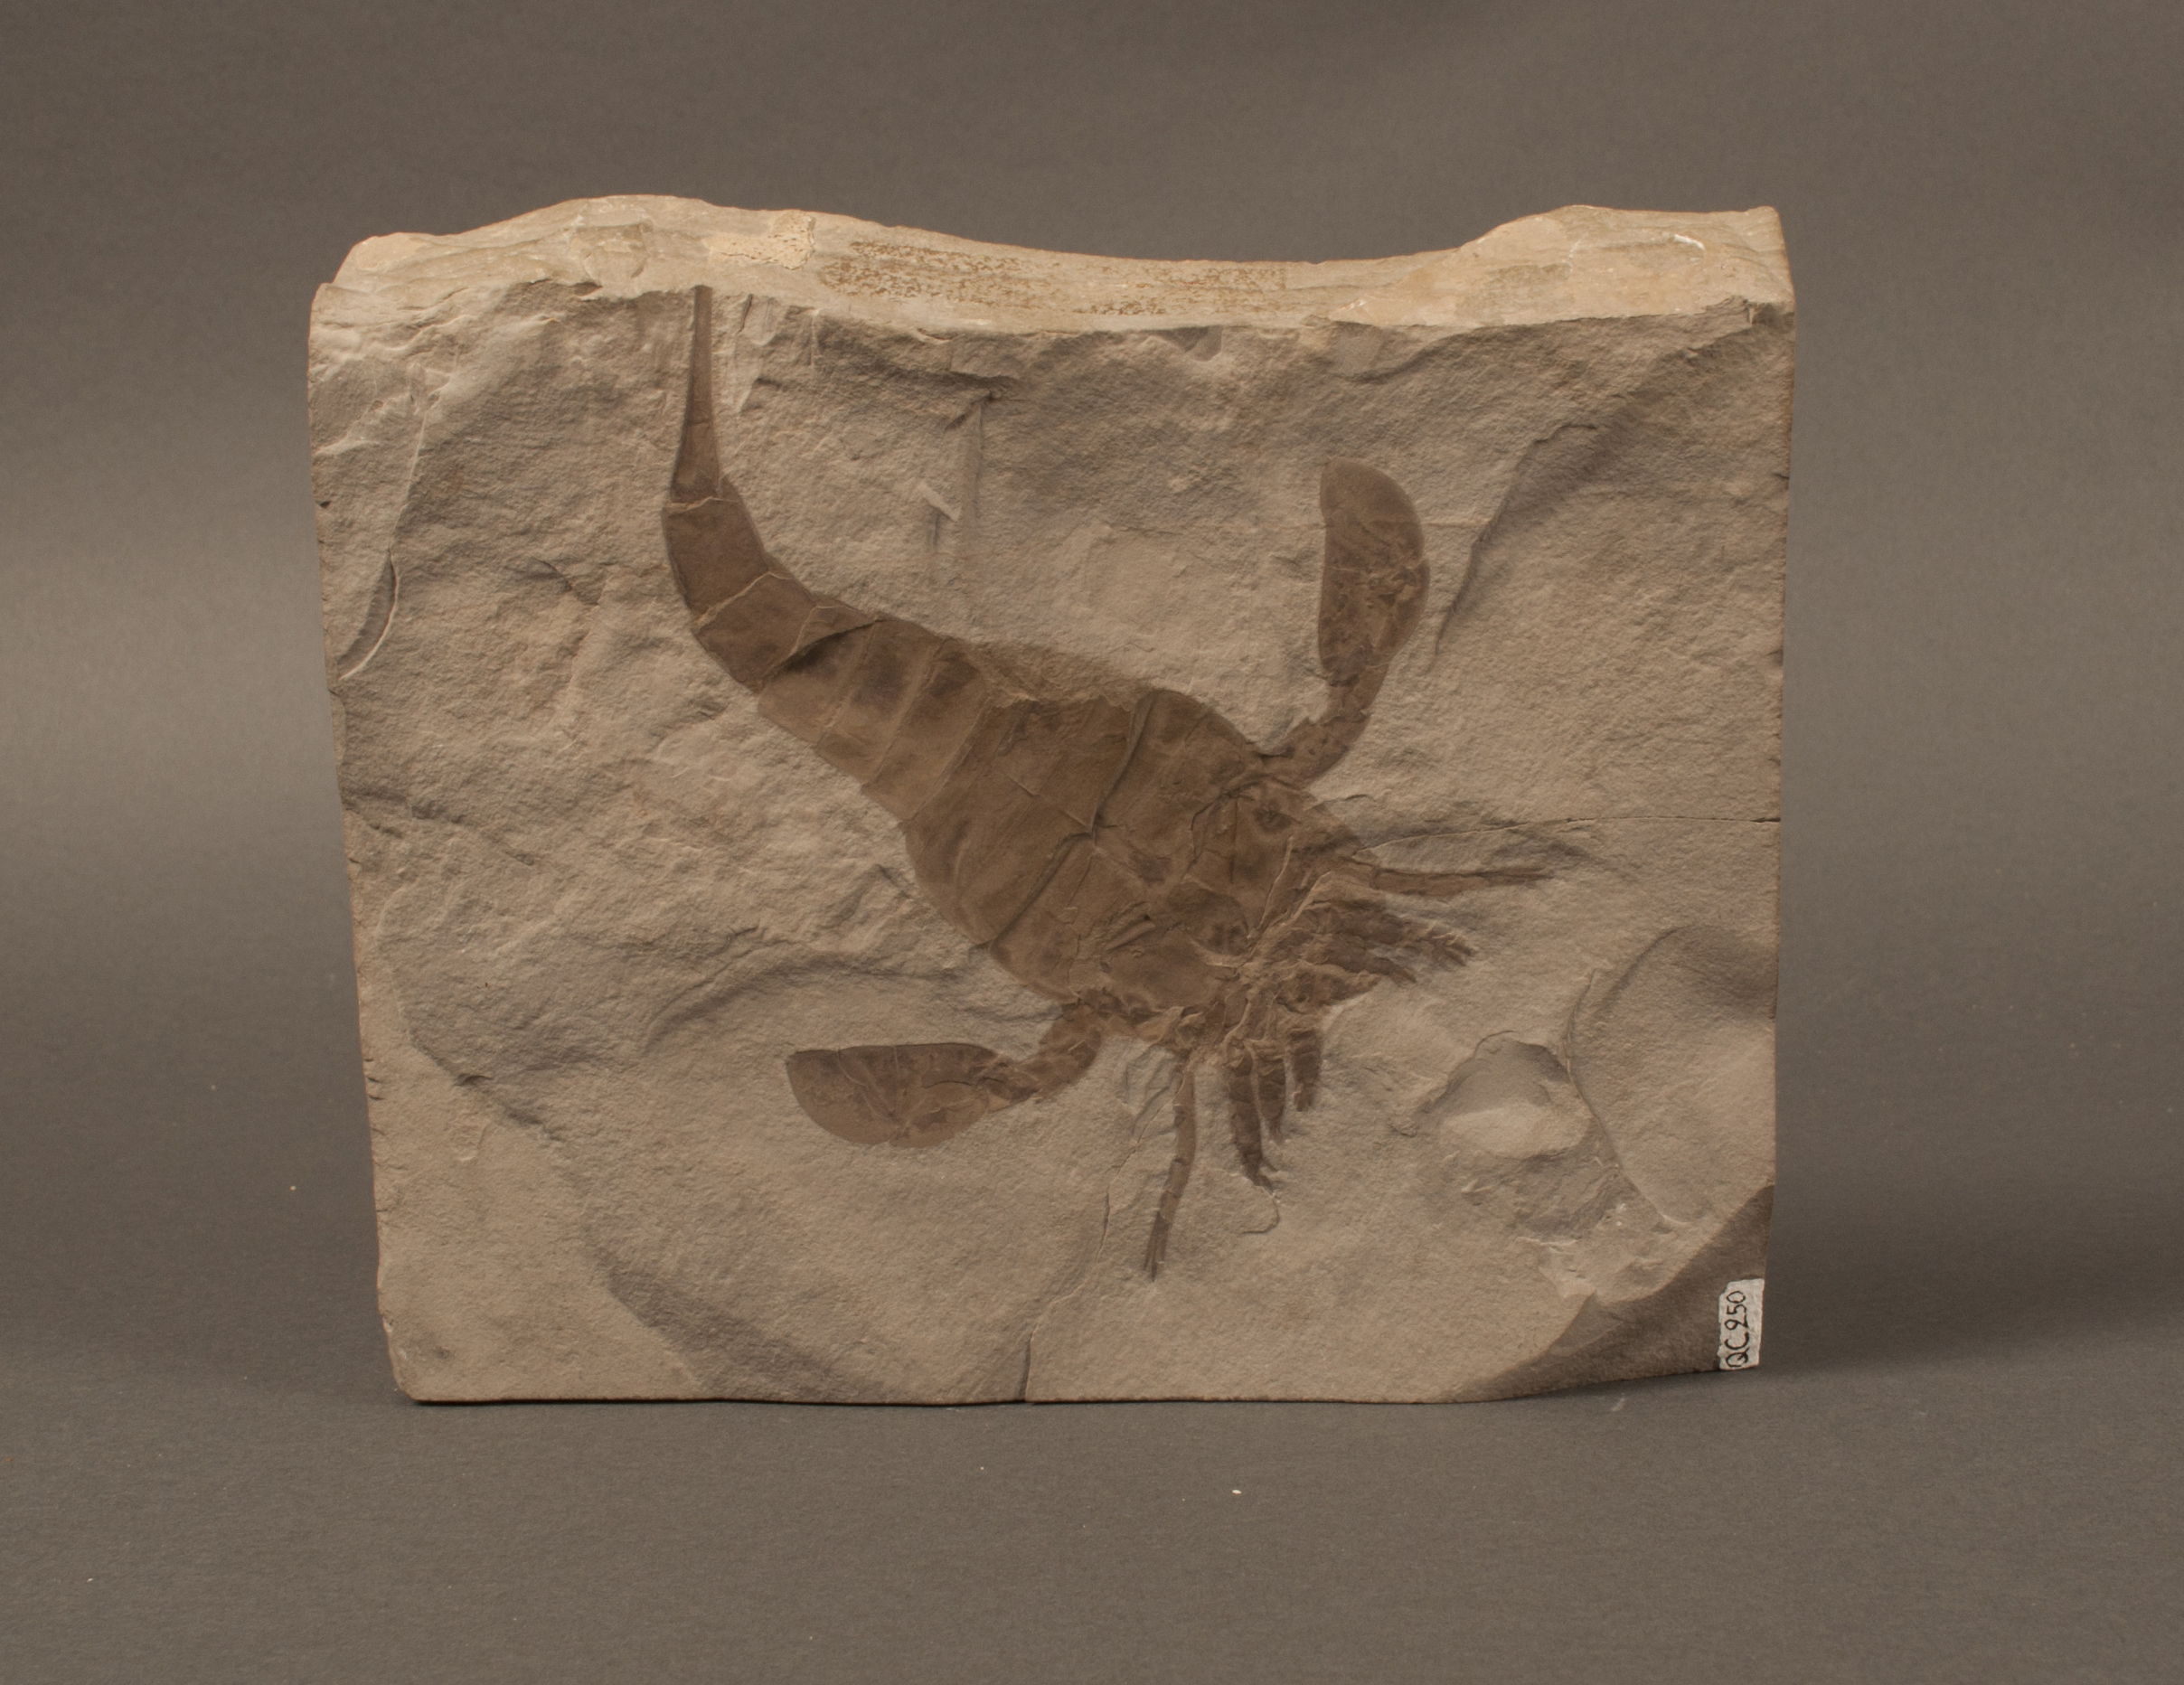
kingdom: Animalia
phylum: Arthropoda
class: Merostomata
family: Eurypteridae
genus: Eurypterus
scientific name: Eurypterus remipes
